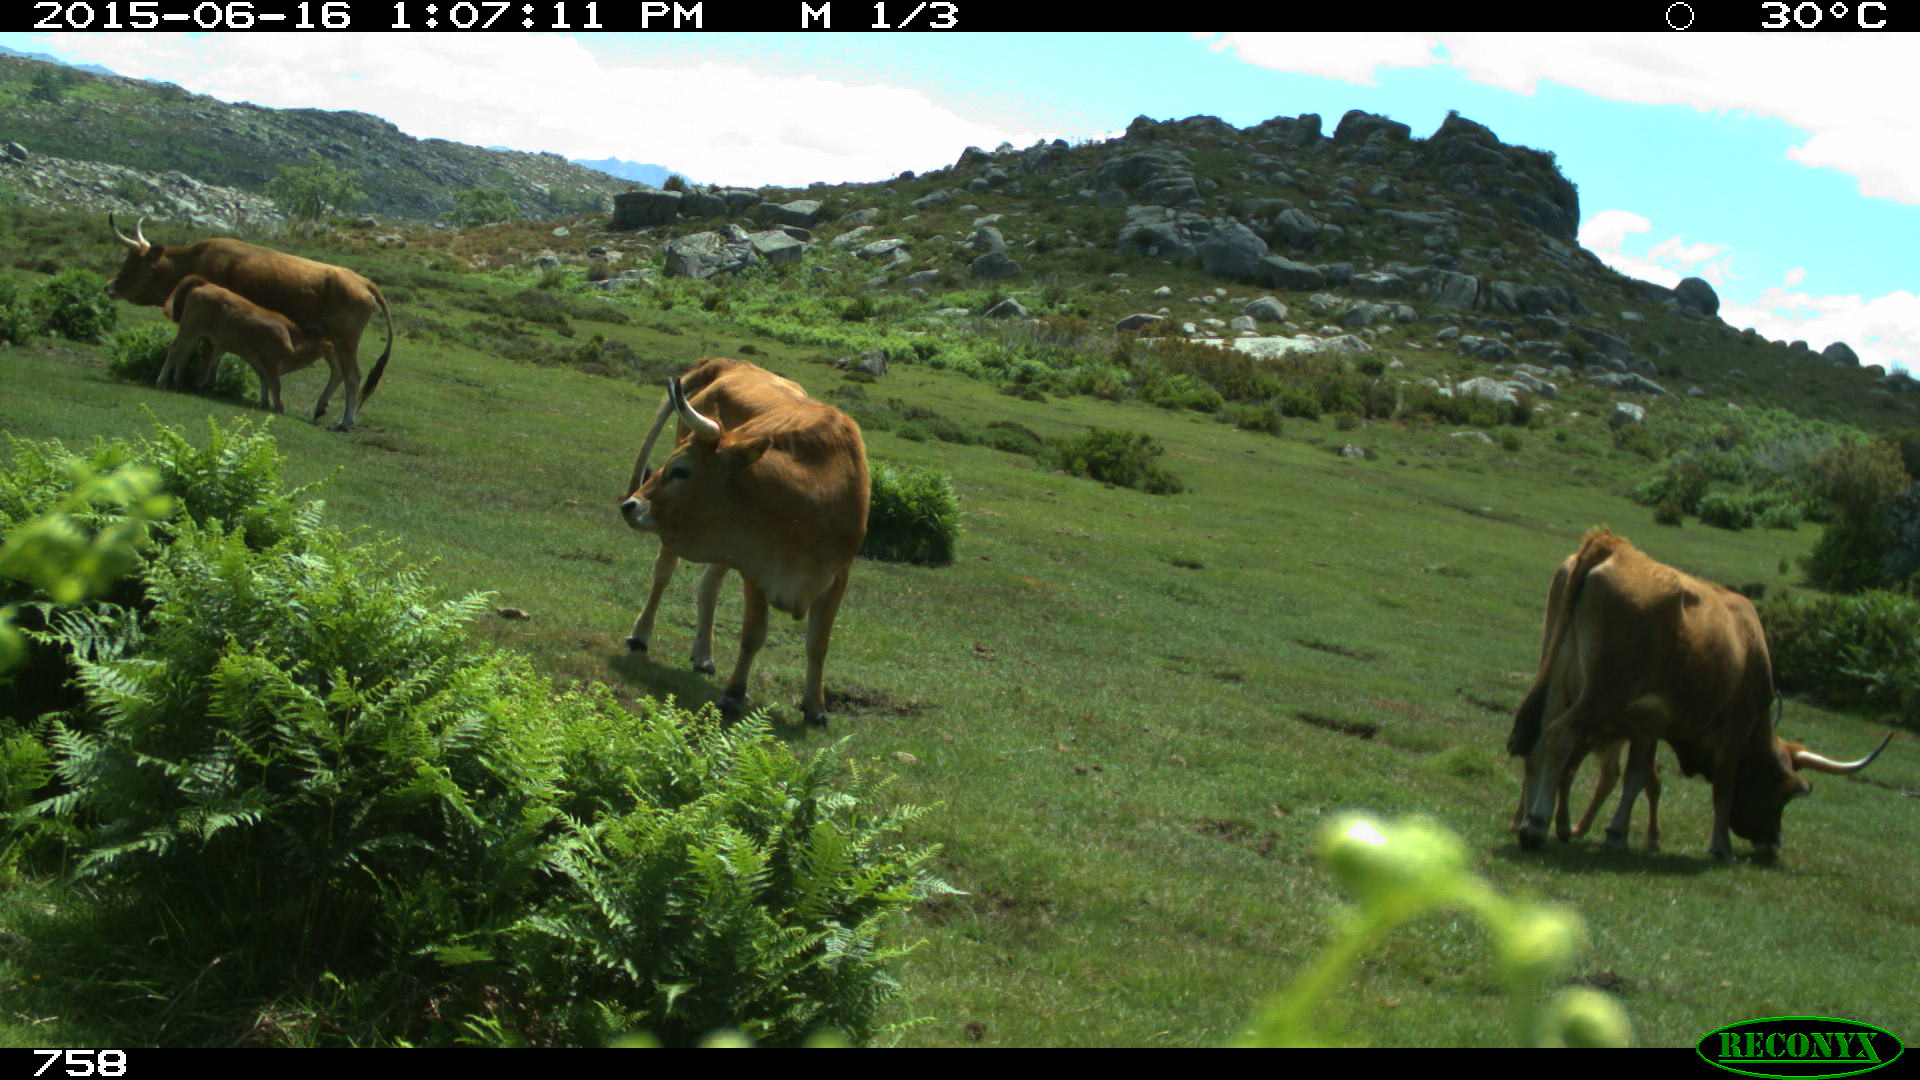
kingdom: Animalia
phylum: Chordata
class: Mammalia
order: Artiodactyla
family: Bovidae
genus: Bos
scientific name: Bos taurus
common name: Domesticated cattle
